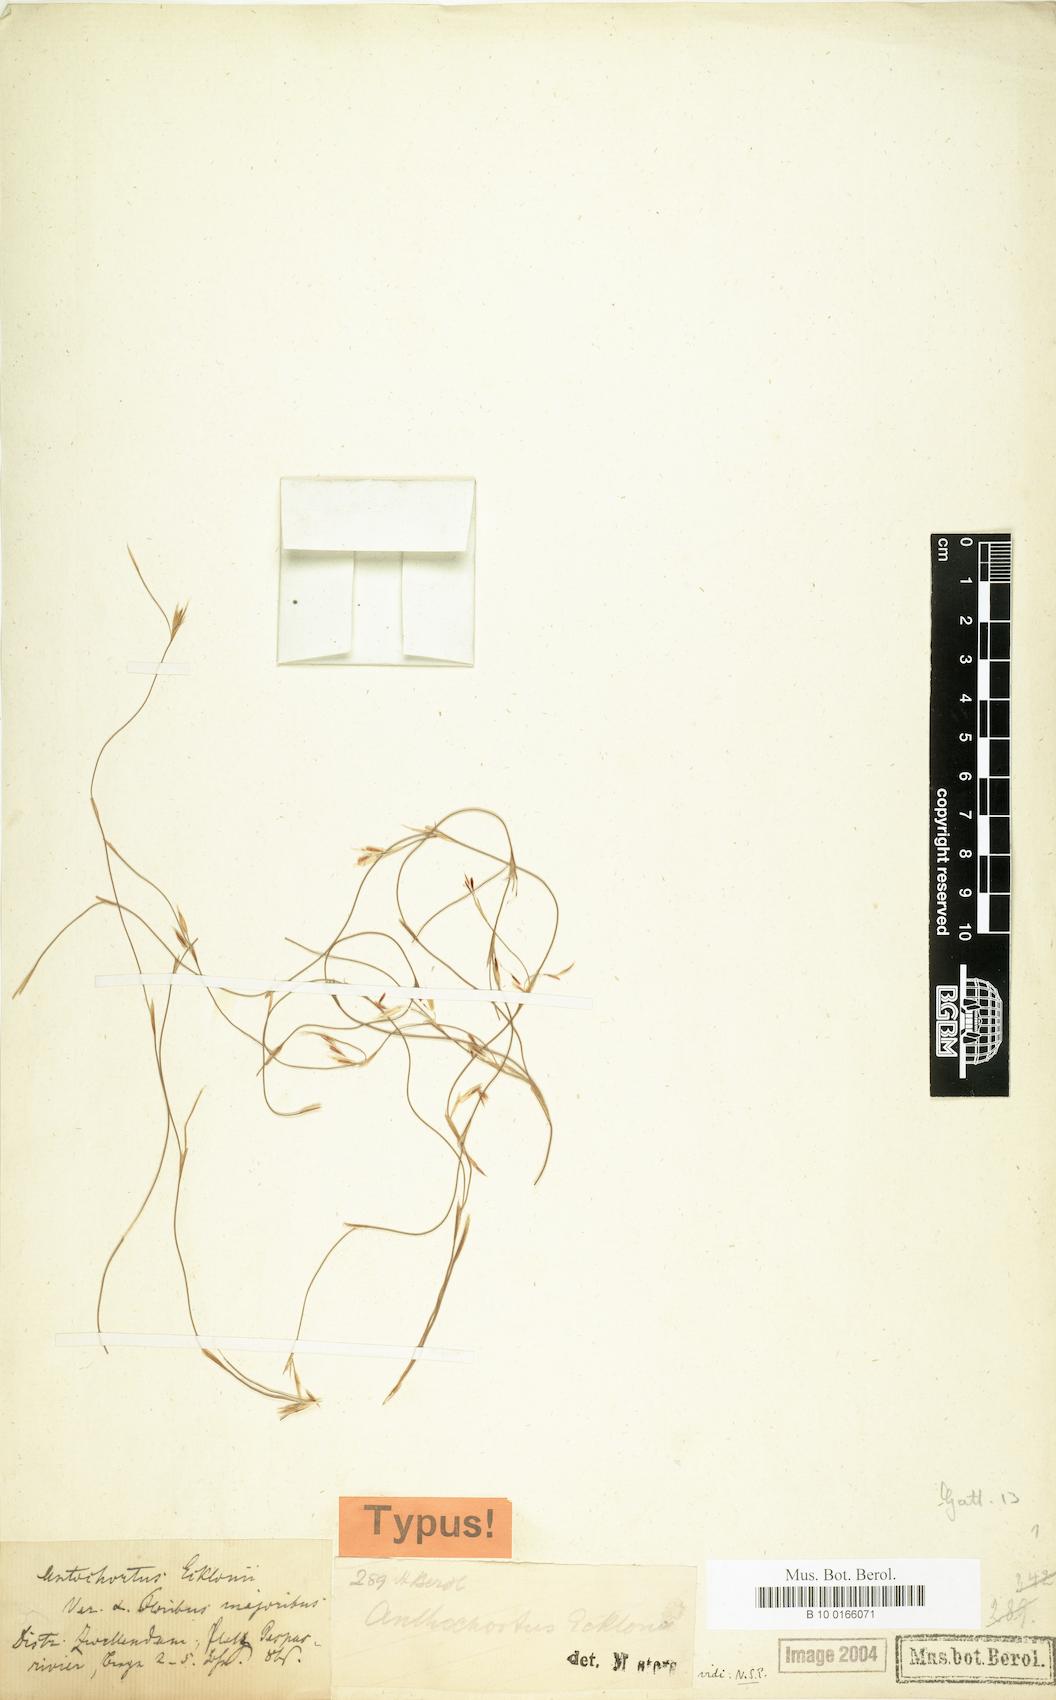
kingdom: Plantae
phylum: Tracheophyta
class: Liliopsida
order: Poales
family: Restionaceae
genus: Anthochortus
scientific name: Anthochortus ecklonii
